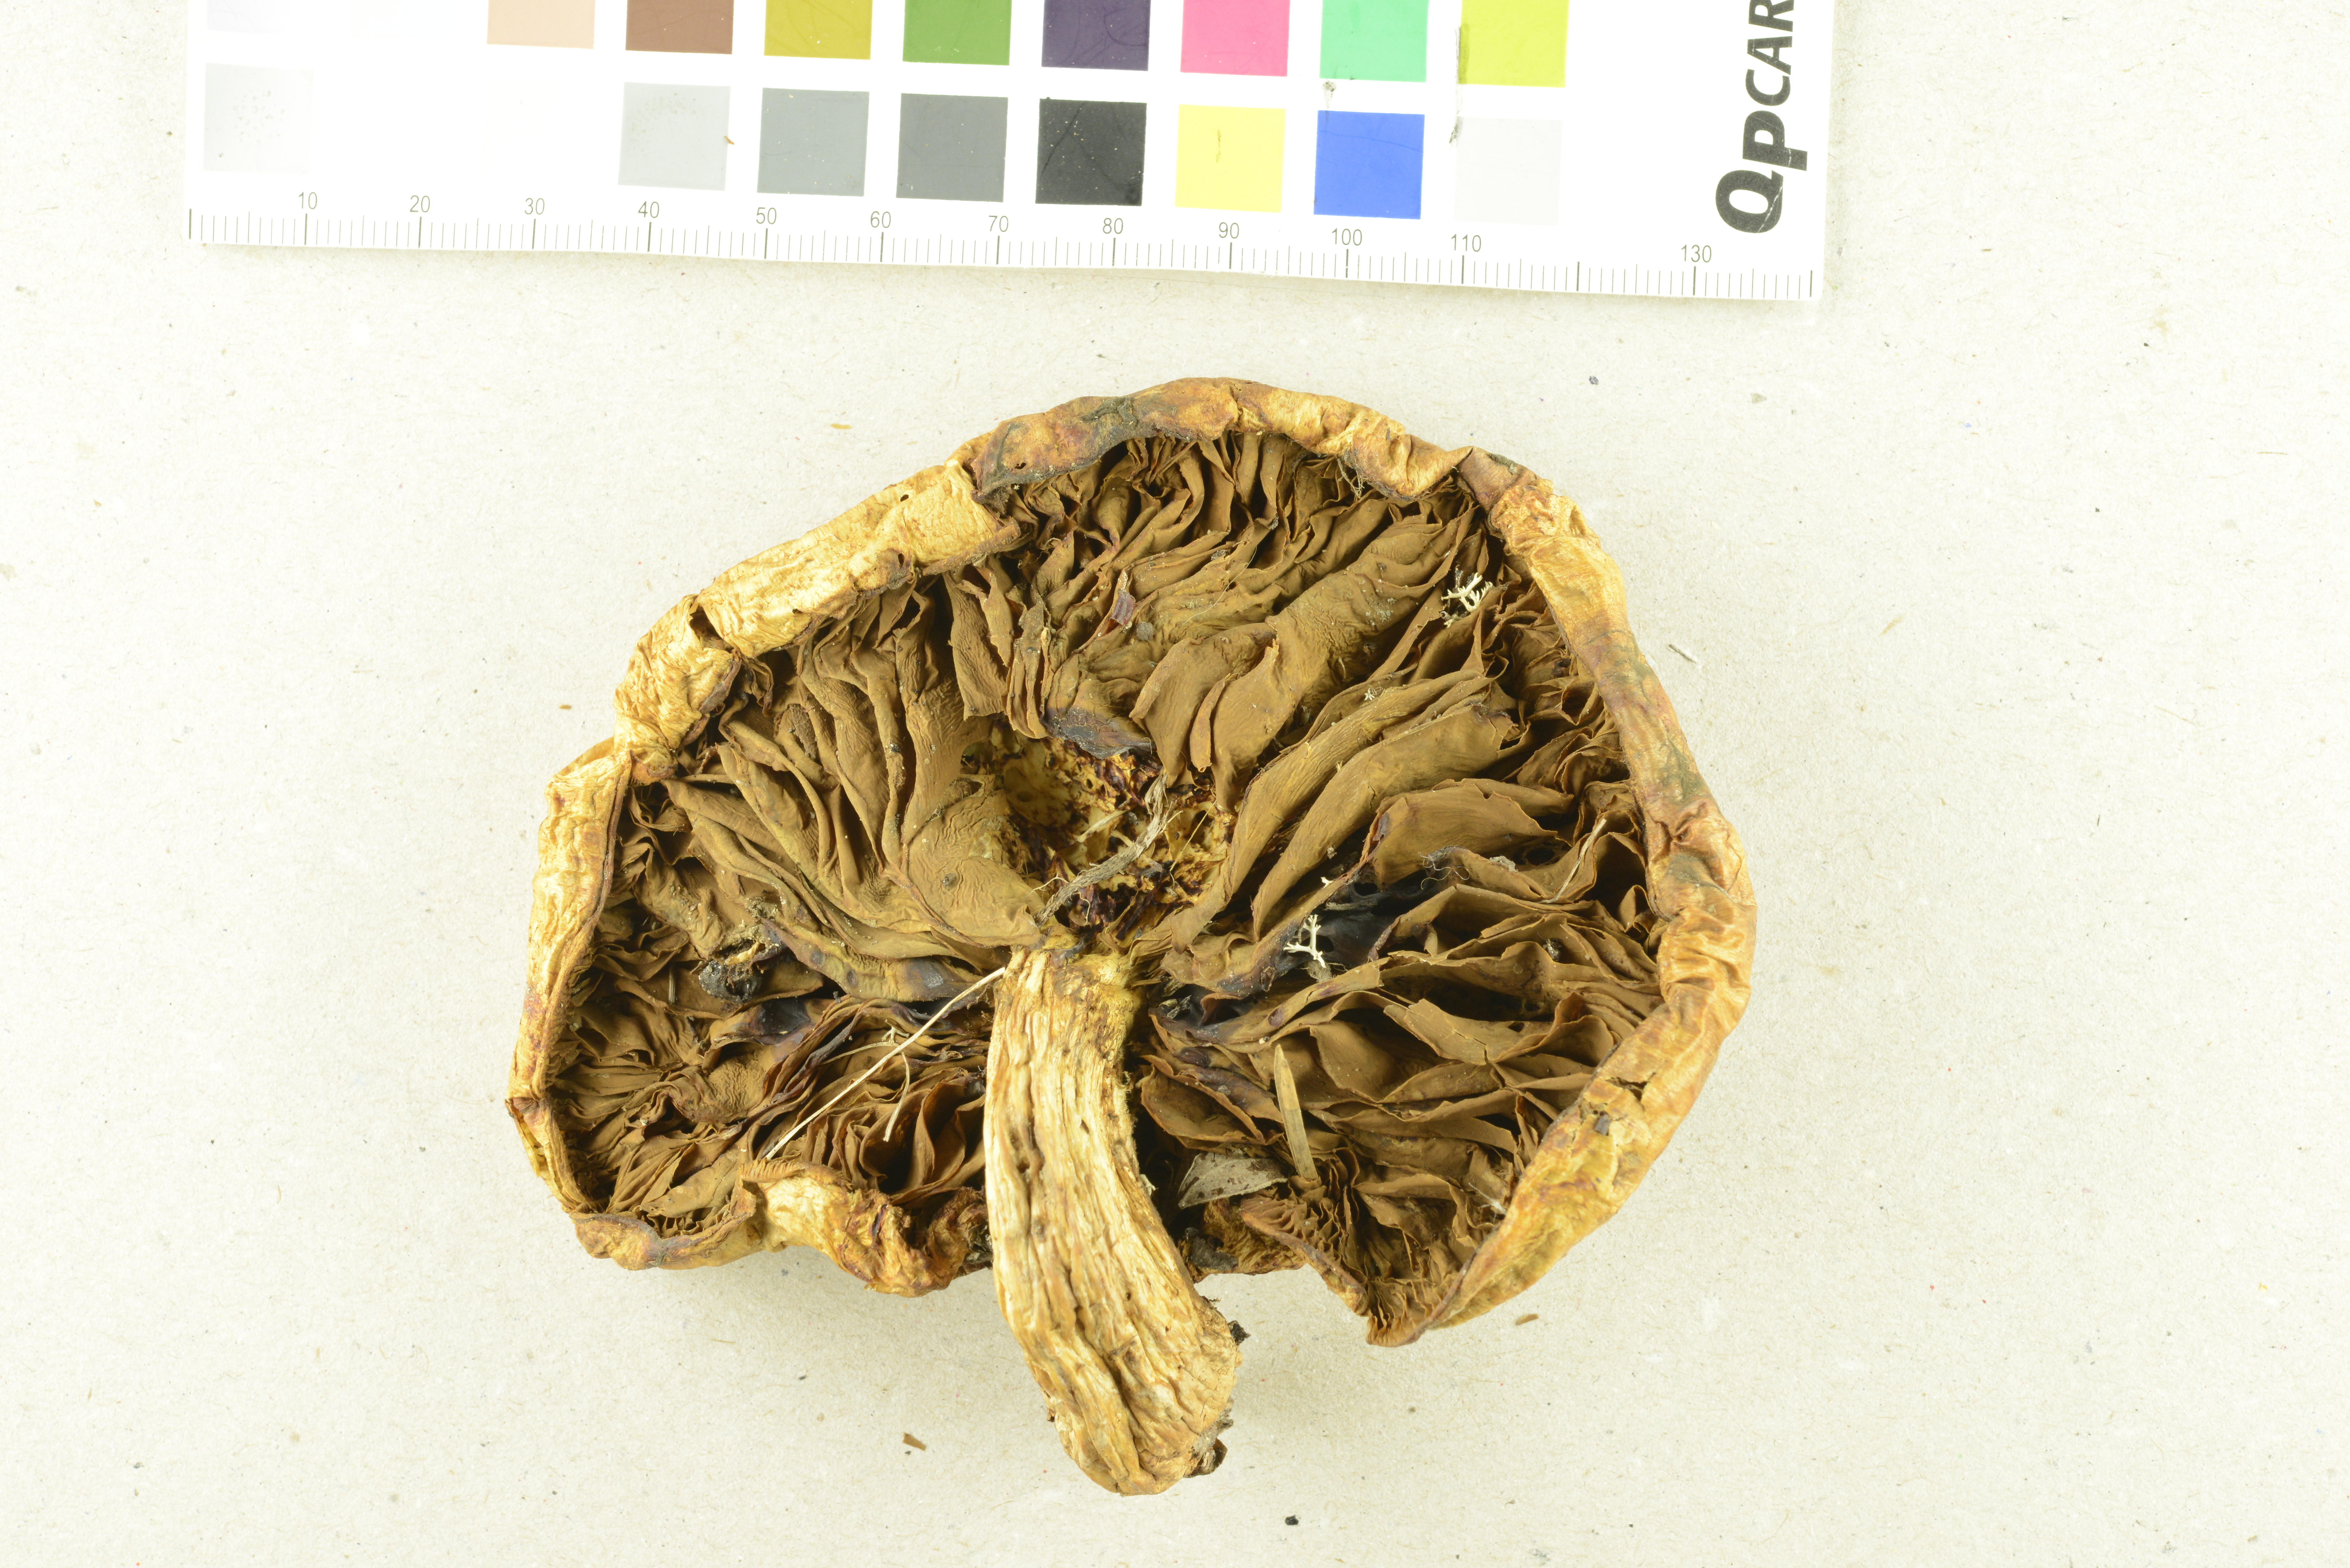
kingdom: Fungi
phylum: Basidiomycota
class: Agaricomycetes
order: Agaricales
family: Strophariaceae
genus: Pholiota
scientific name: Pholiota heteroclita
